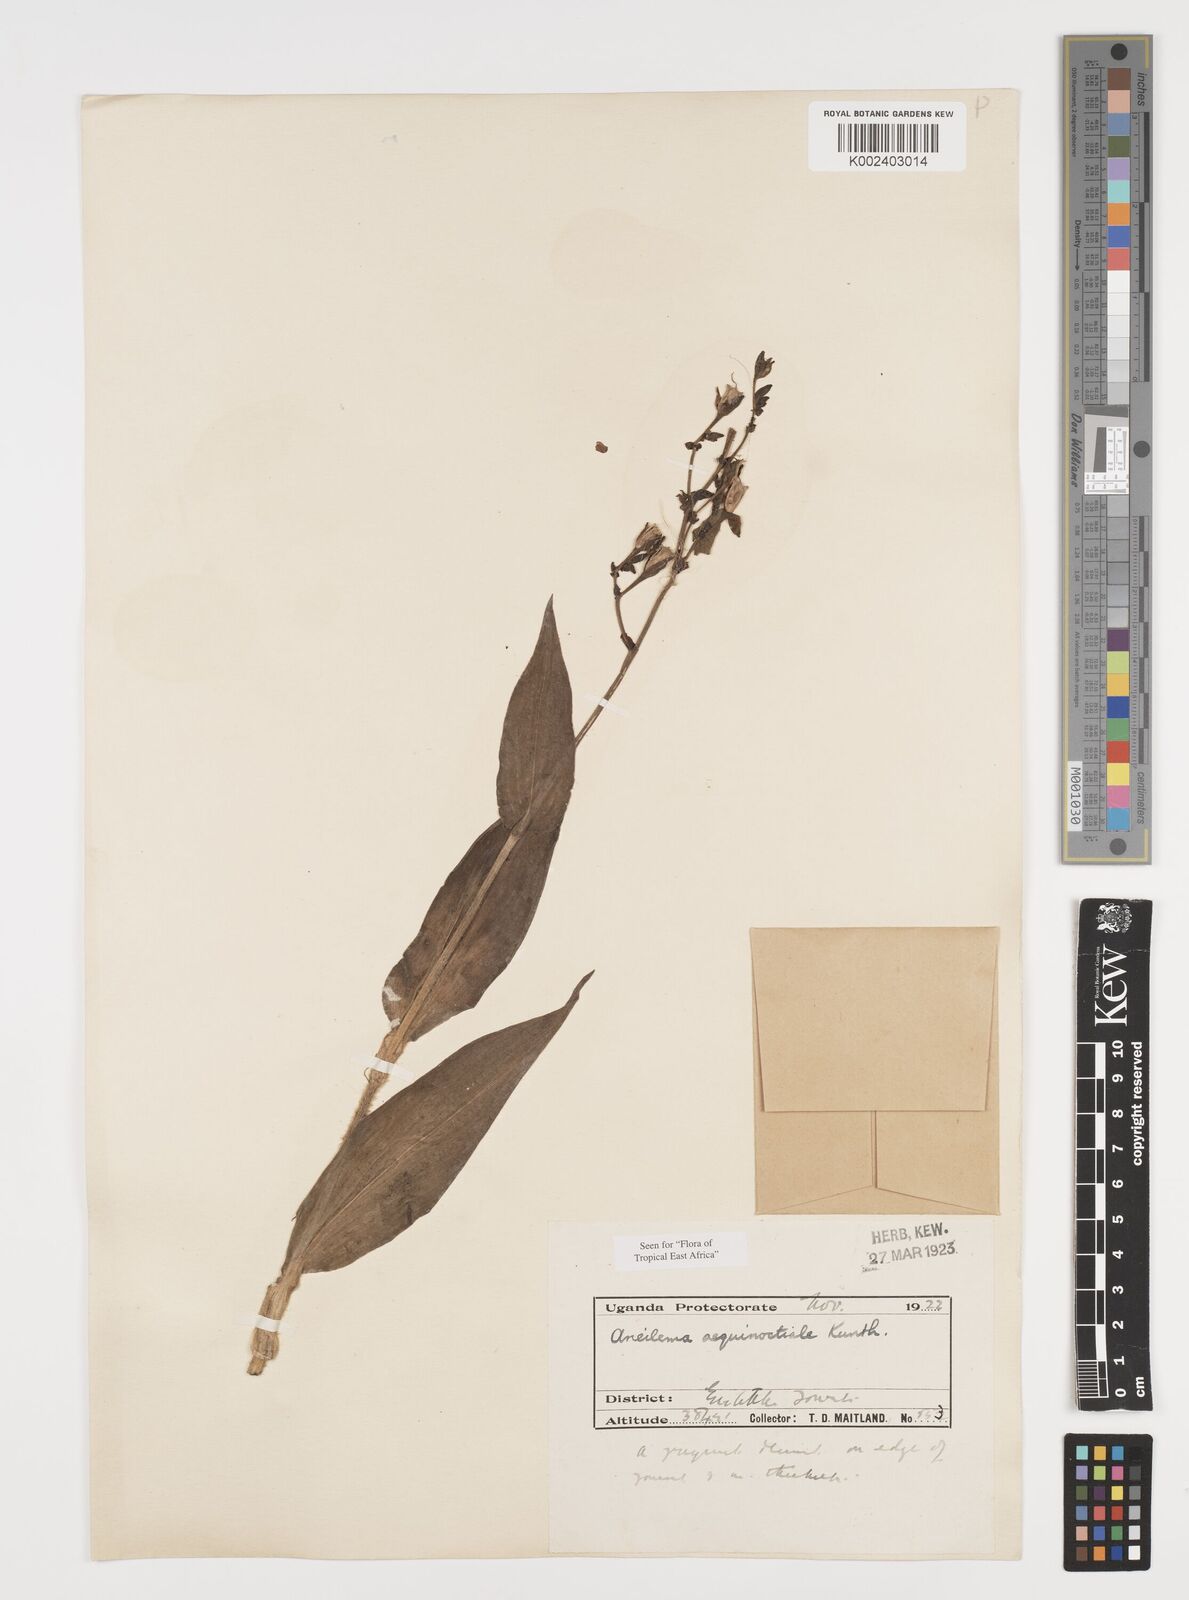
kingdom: Plantae
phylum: Tracheophyta
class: Liliopsida
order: Commelinales
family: Commelinaceae
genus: Aneilema
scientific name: Aneilema aequinoctiale
